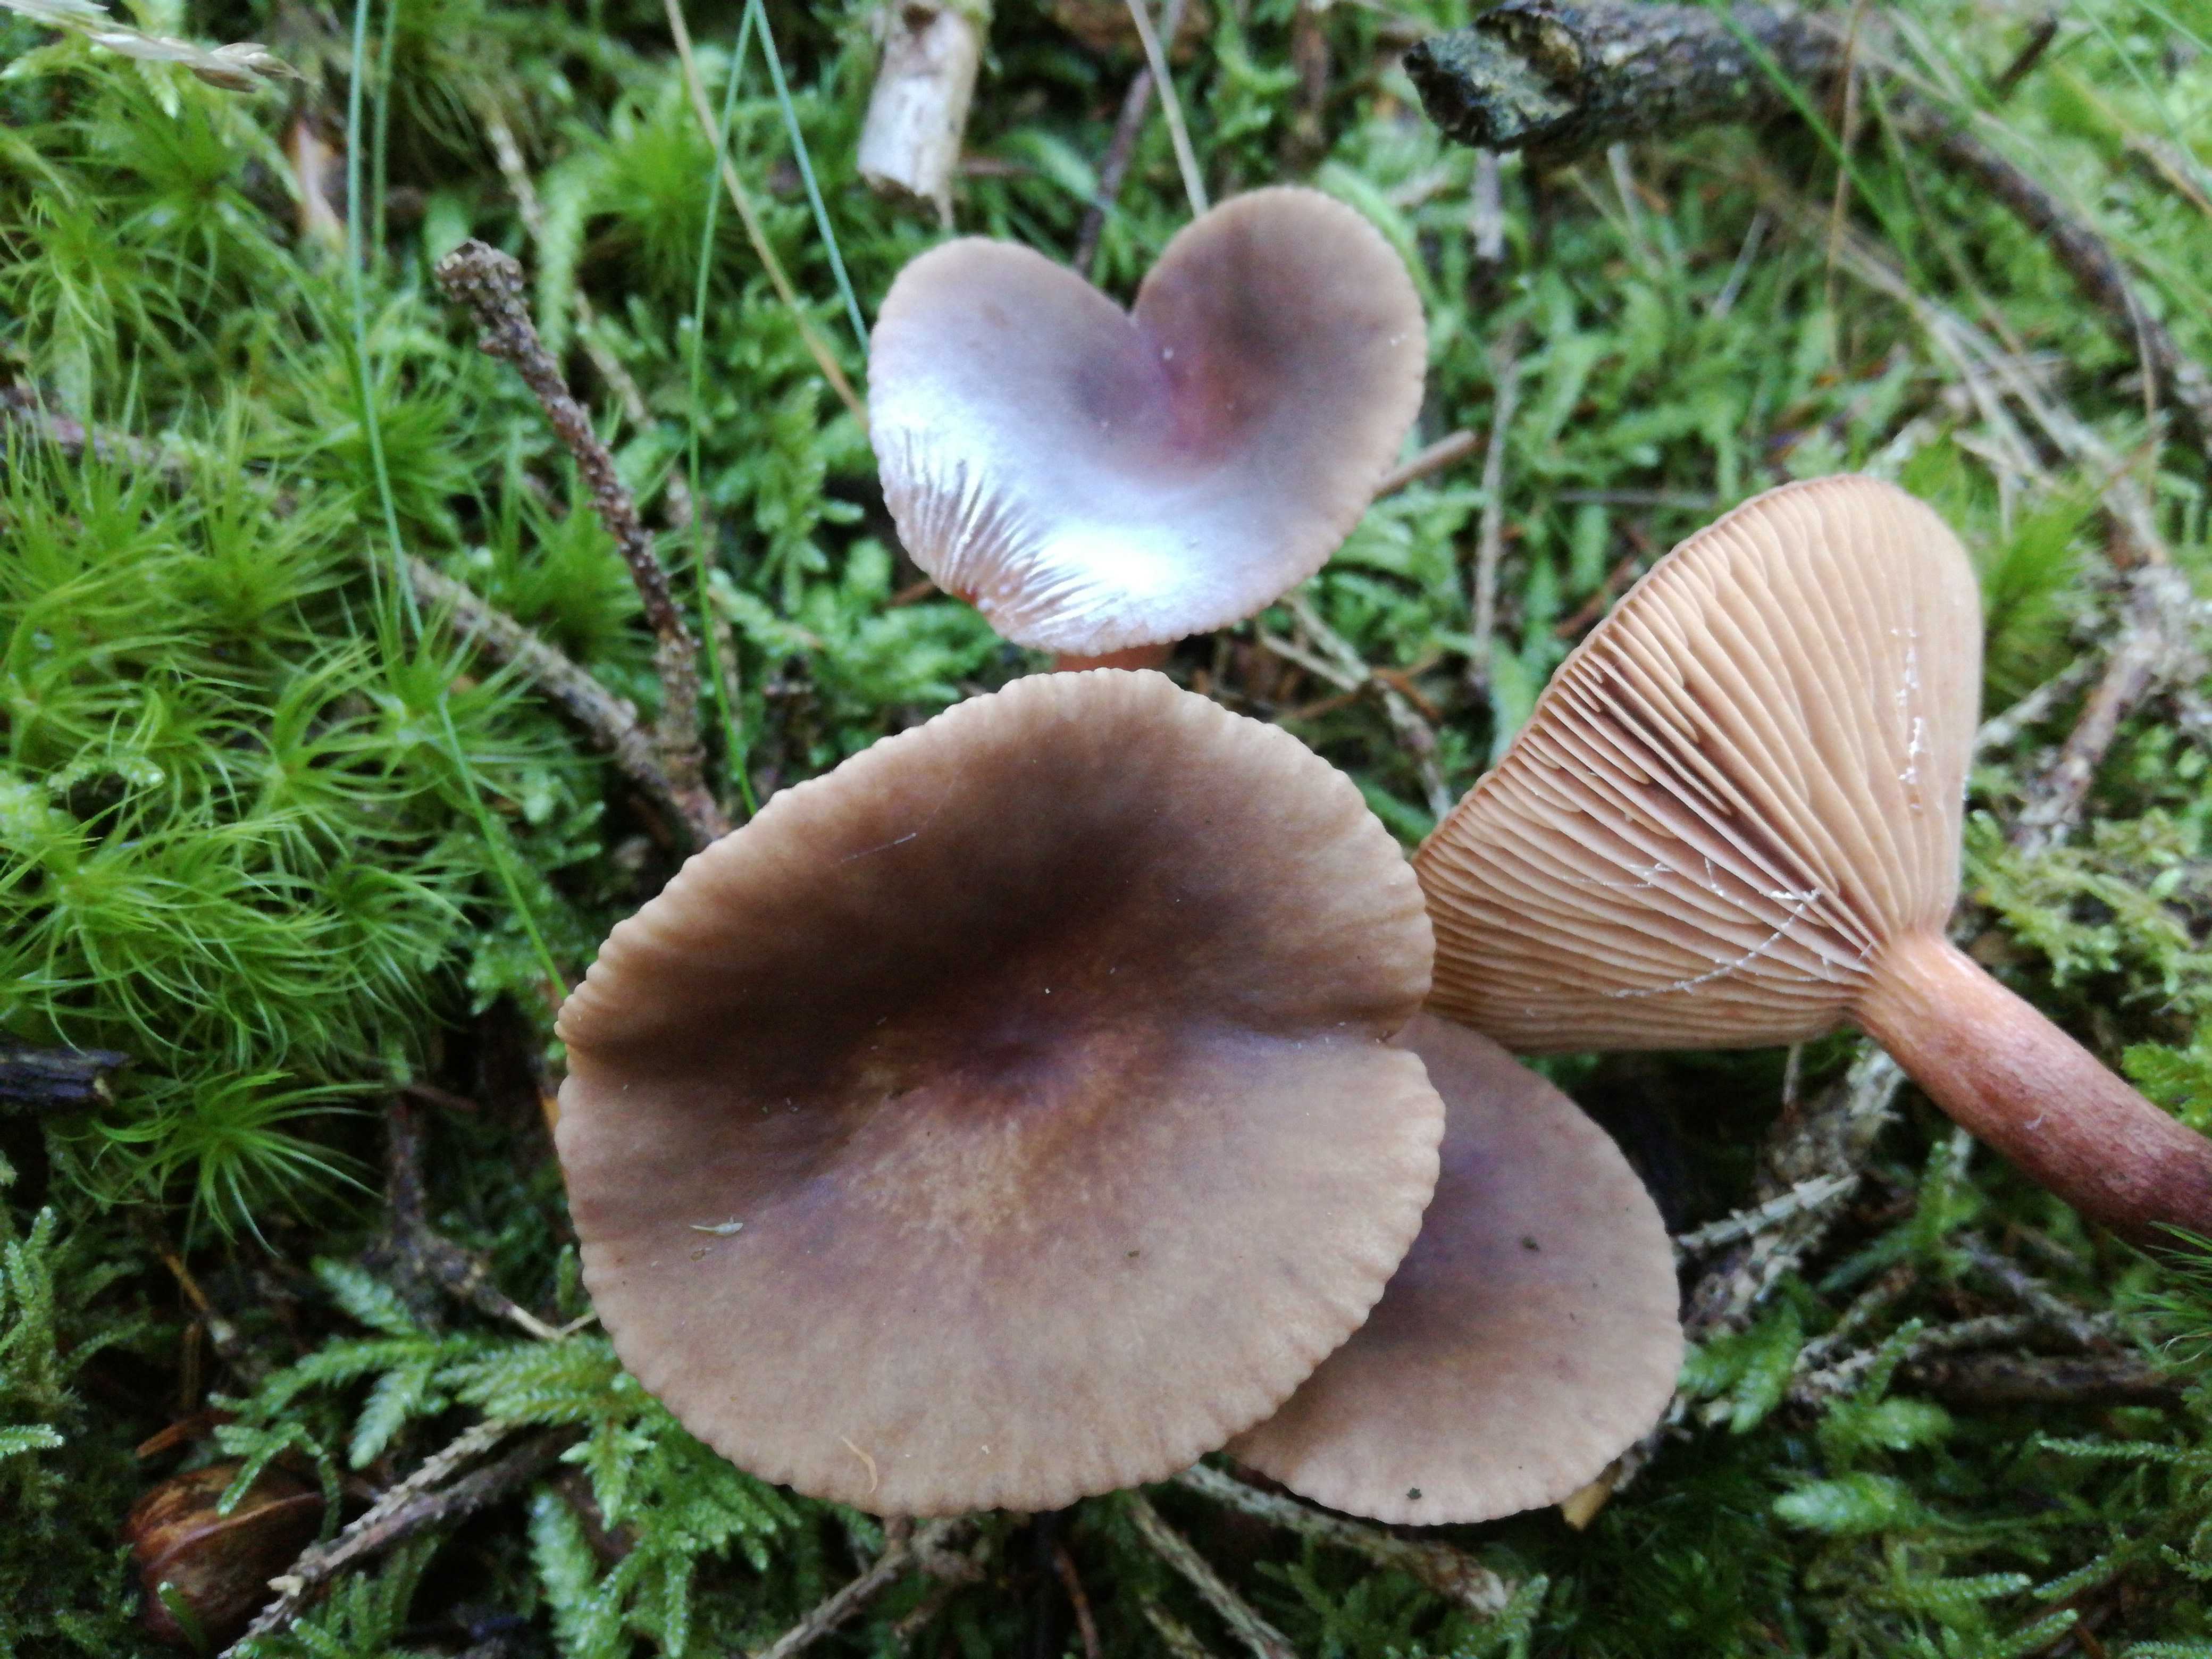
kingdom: Fungi
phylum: Basidiomycota
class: Agaricomycetes
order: Russulales
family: Russulaceae
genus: Lactarius
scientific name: Lactarius hepaticus
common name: leverbrun mælkehat
